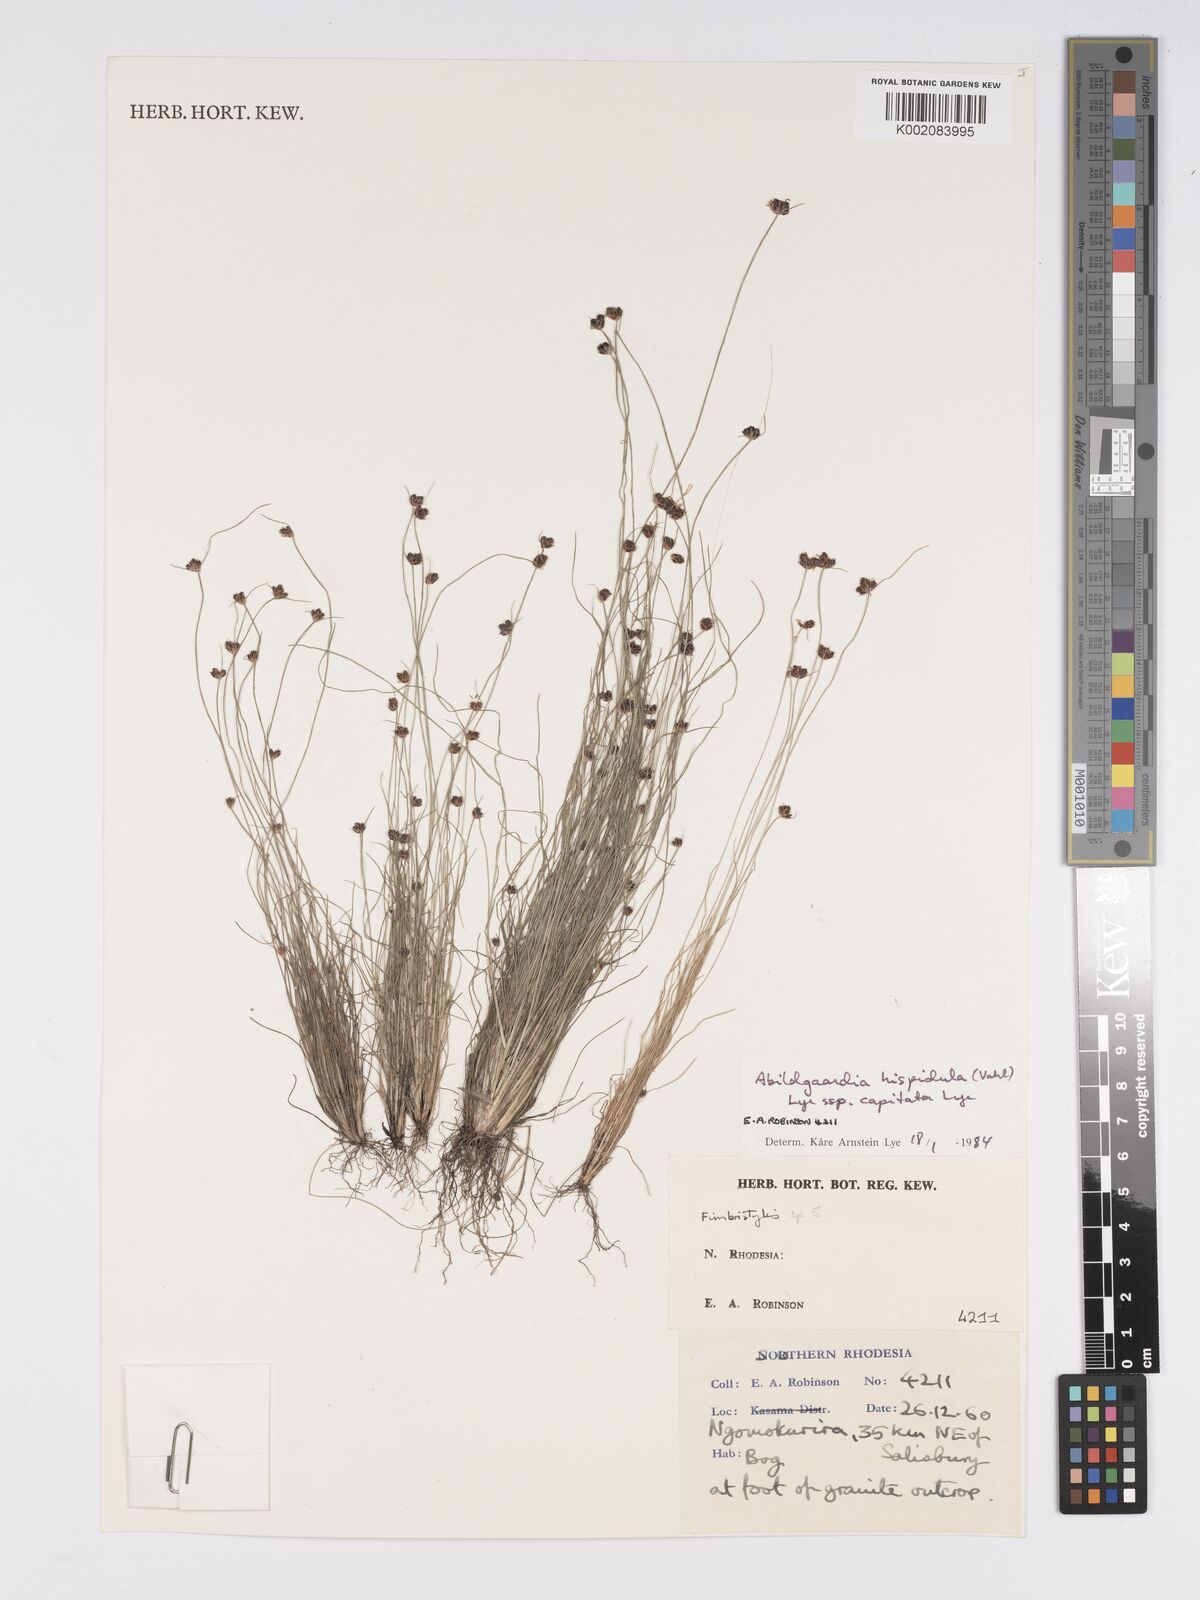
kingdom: Plantae
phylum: Tracheophyta
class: Liliopsida
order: Poales
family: Cyperaceae
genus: Bulbostylis
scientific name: Bulbostylis hispidula
